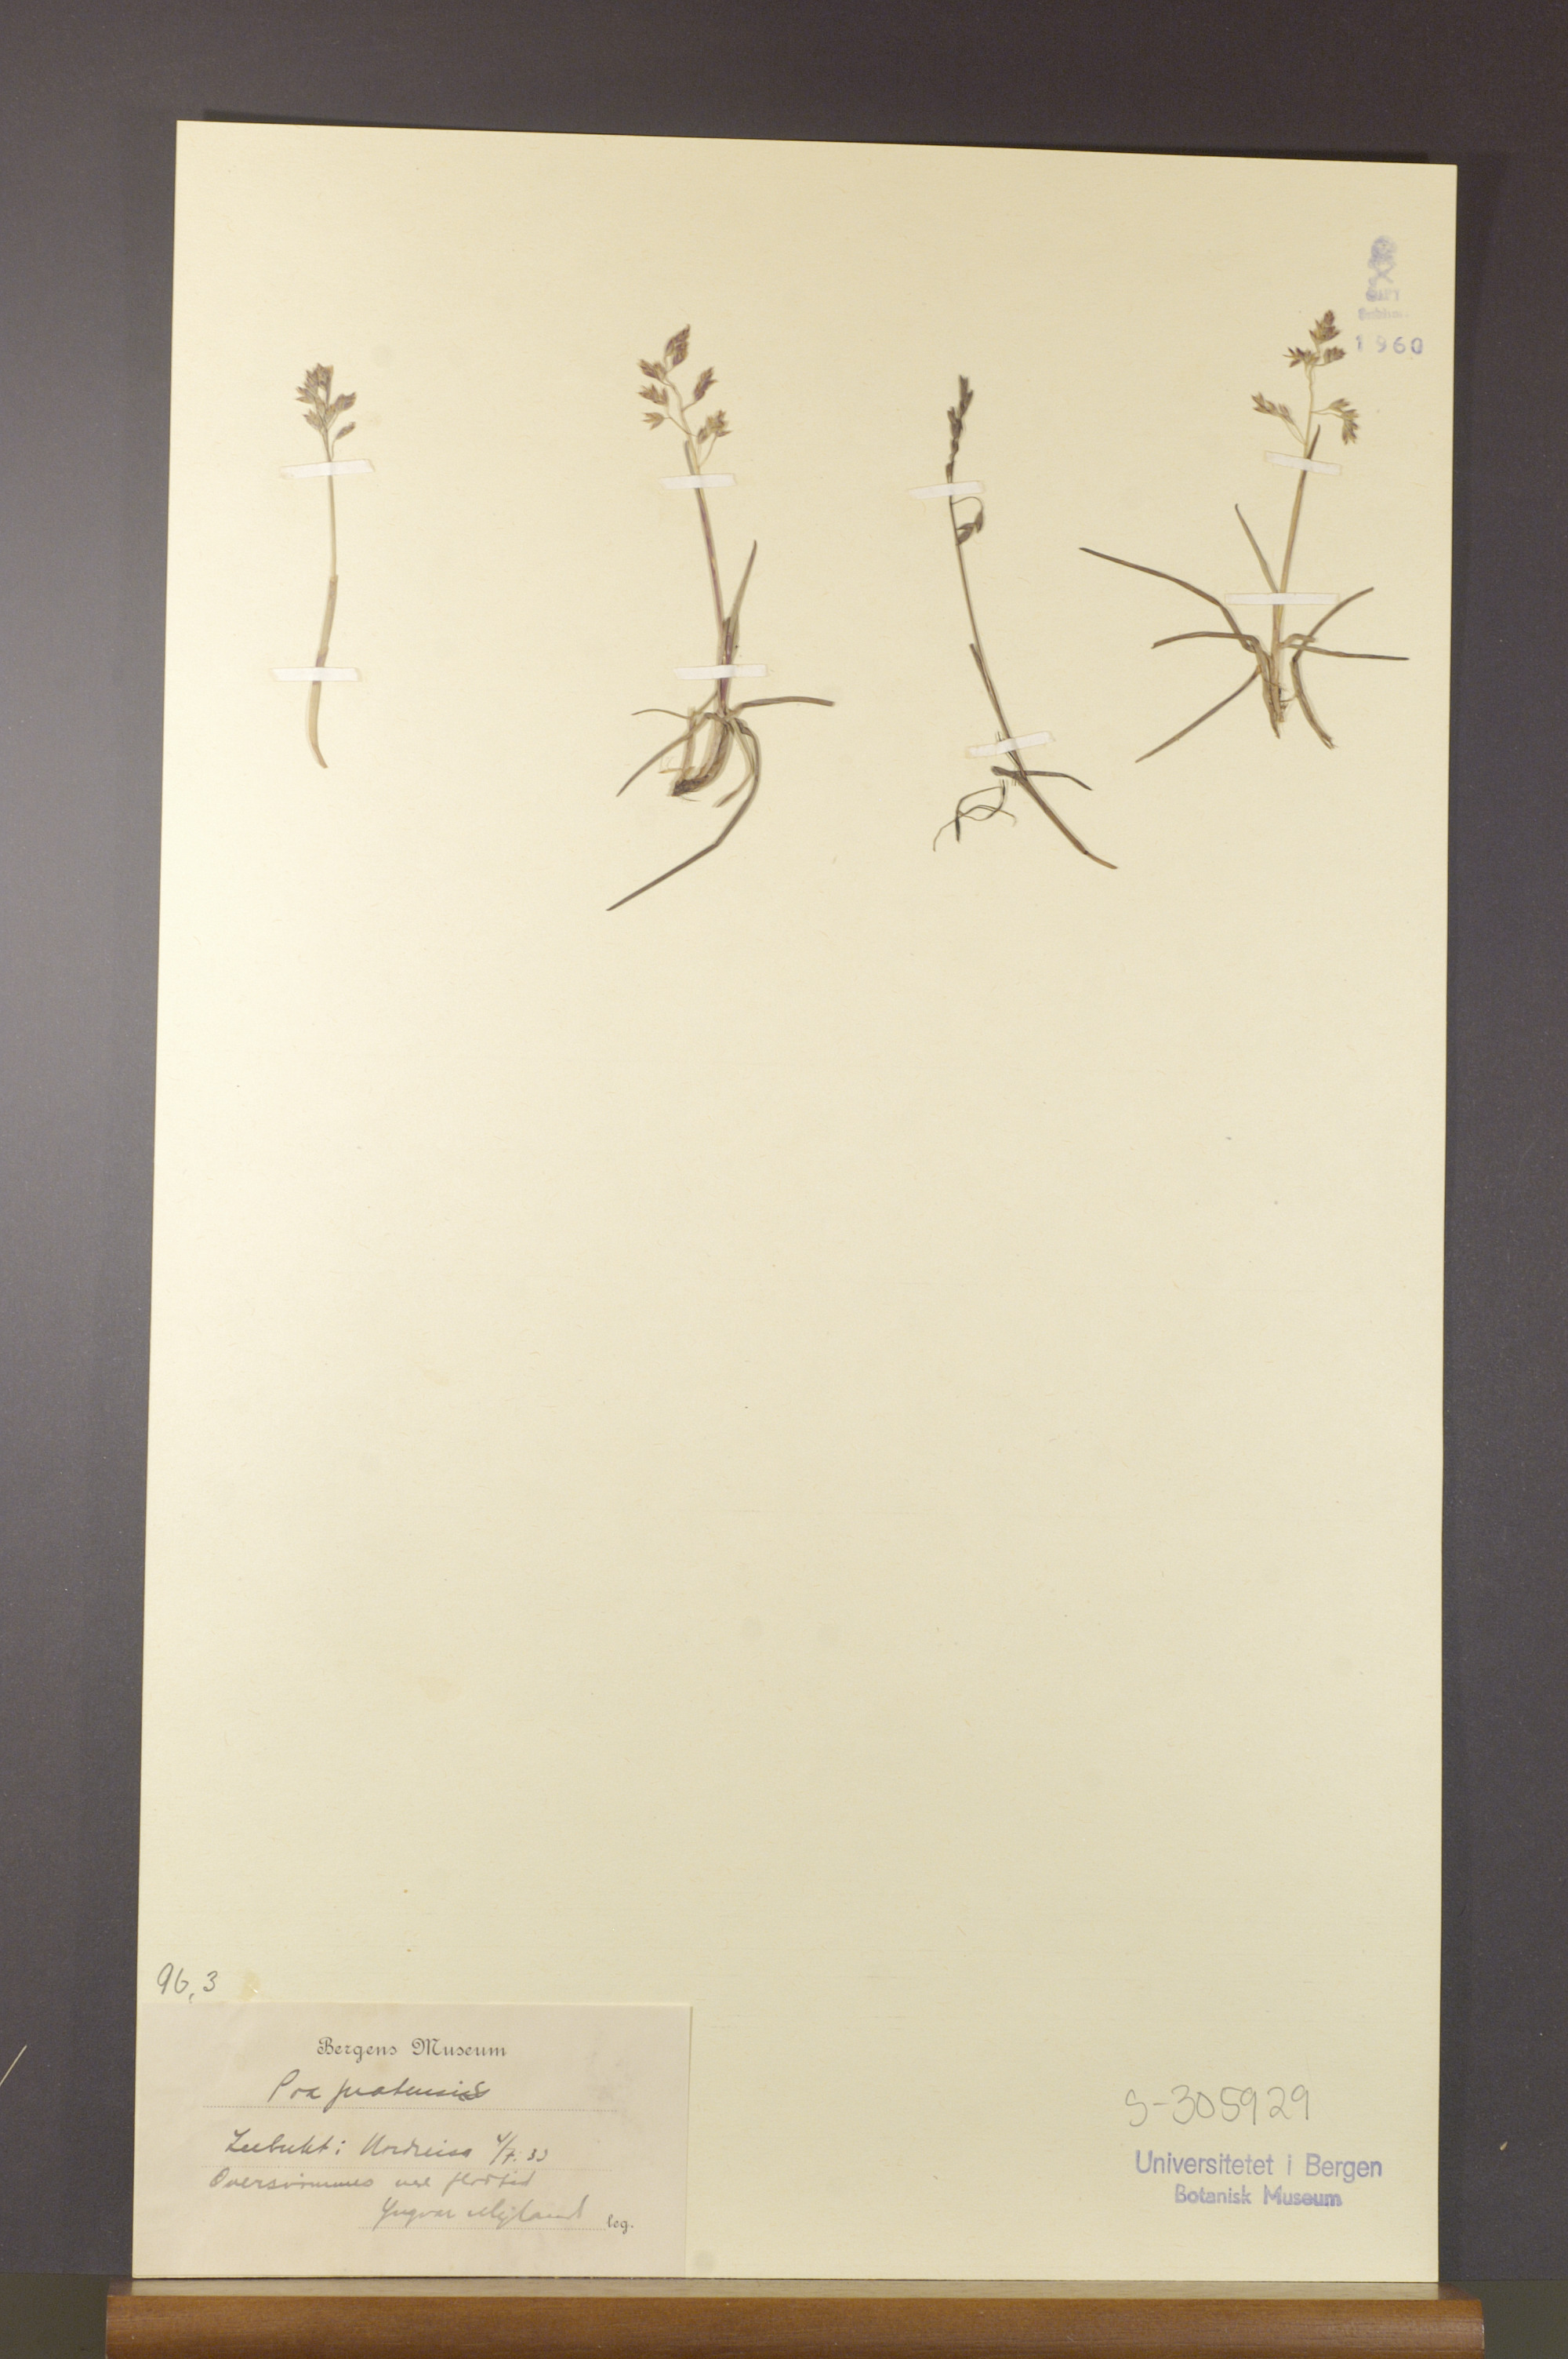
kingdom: Plantae
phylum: Tracheophyta
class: Liliopsida
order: Poales
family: Poaceae
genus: Poa
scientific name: Poa pratensis
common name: Kentucky bluegrass
